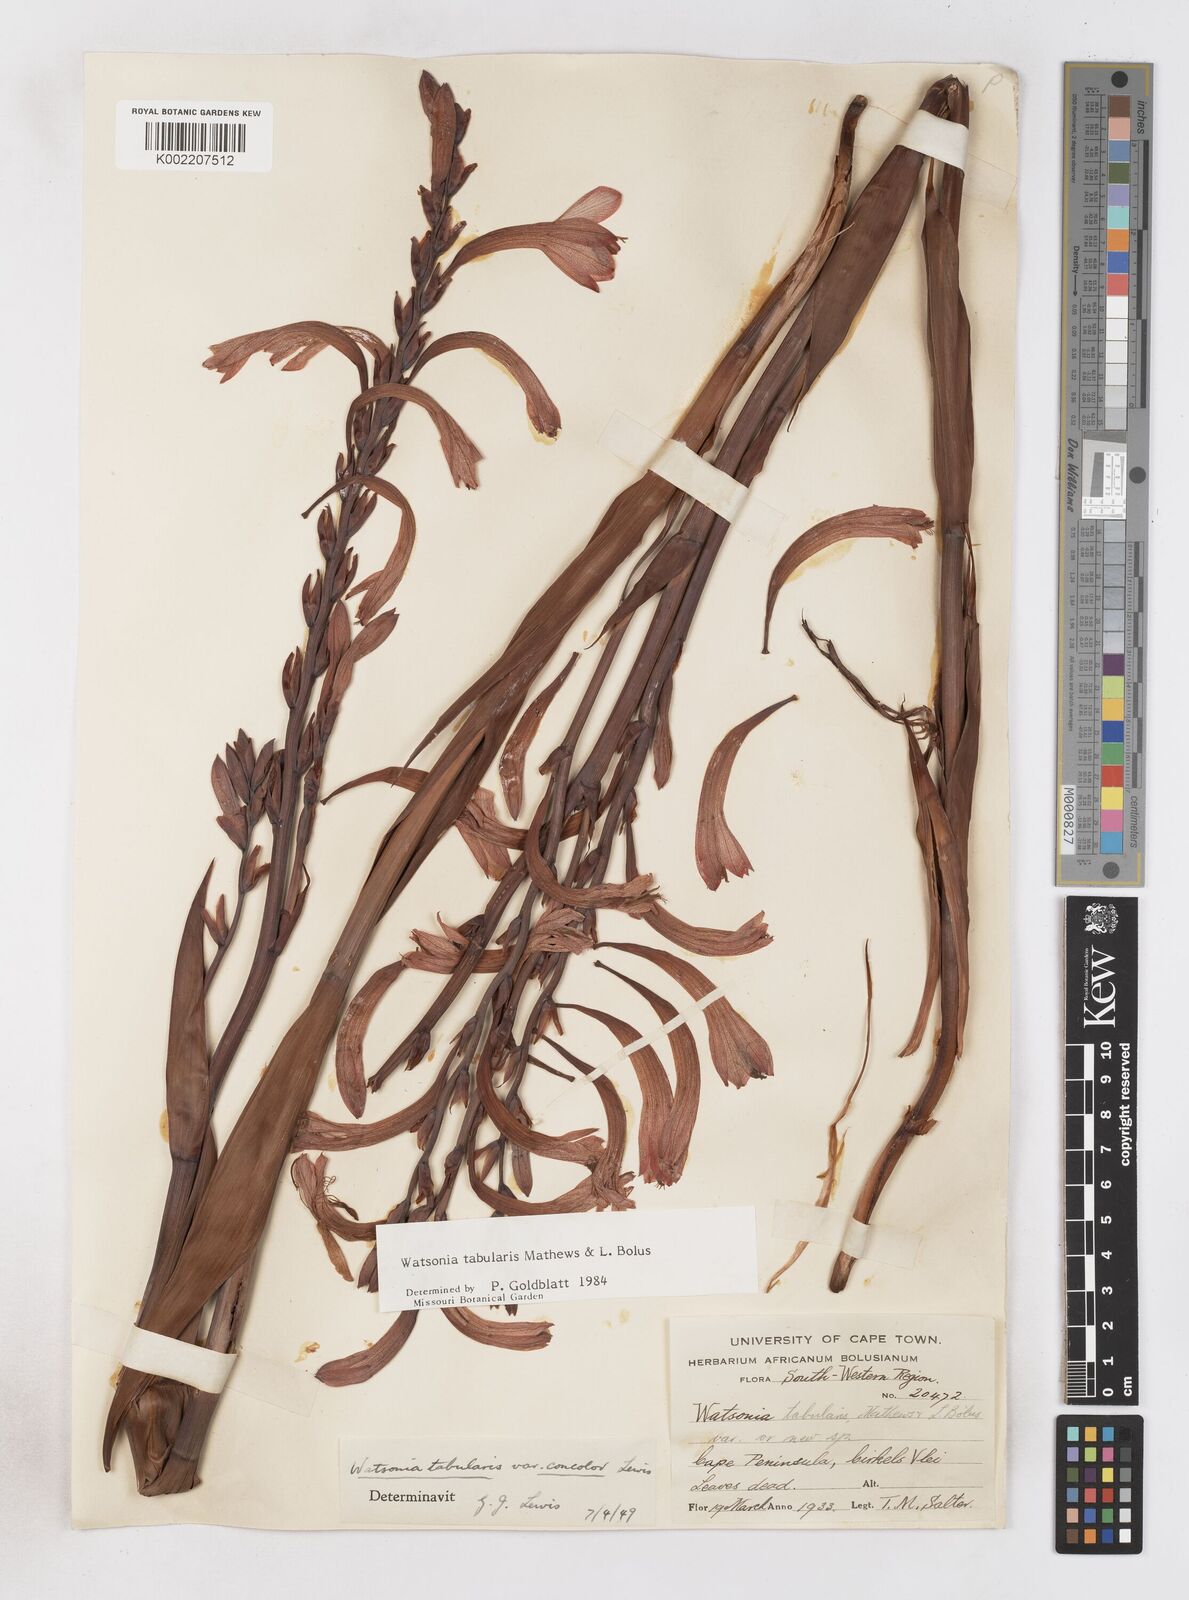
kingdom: Plantae
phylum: Tracheophyta
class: Liliopsida
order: Asparagales
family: Iridaceae
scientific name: Iridaceae
